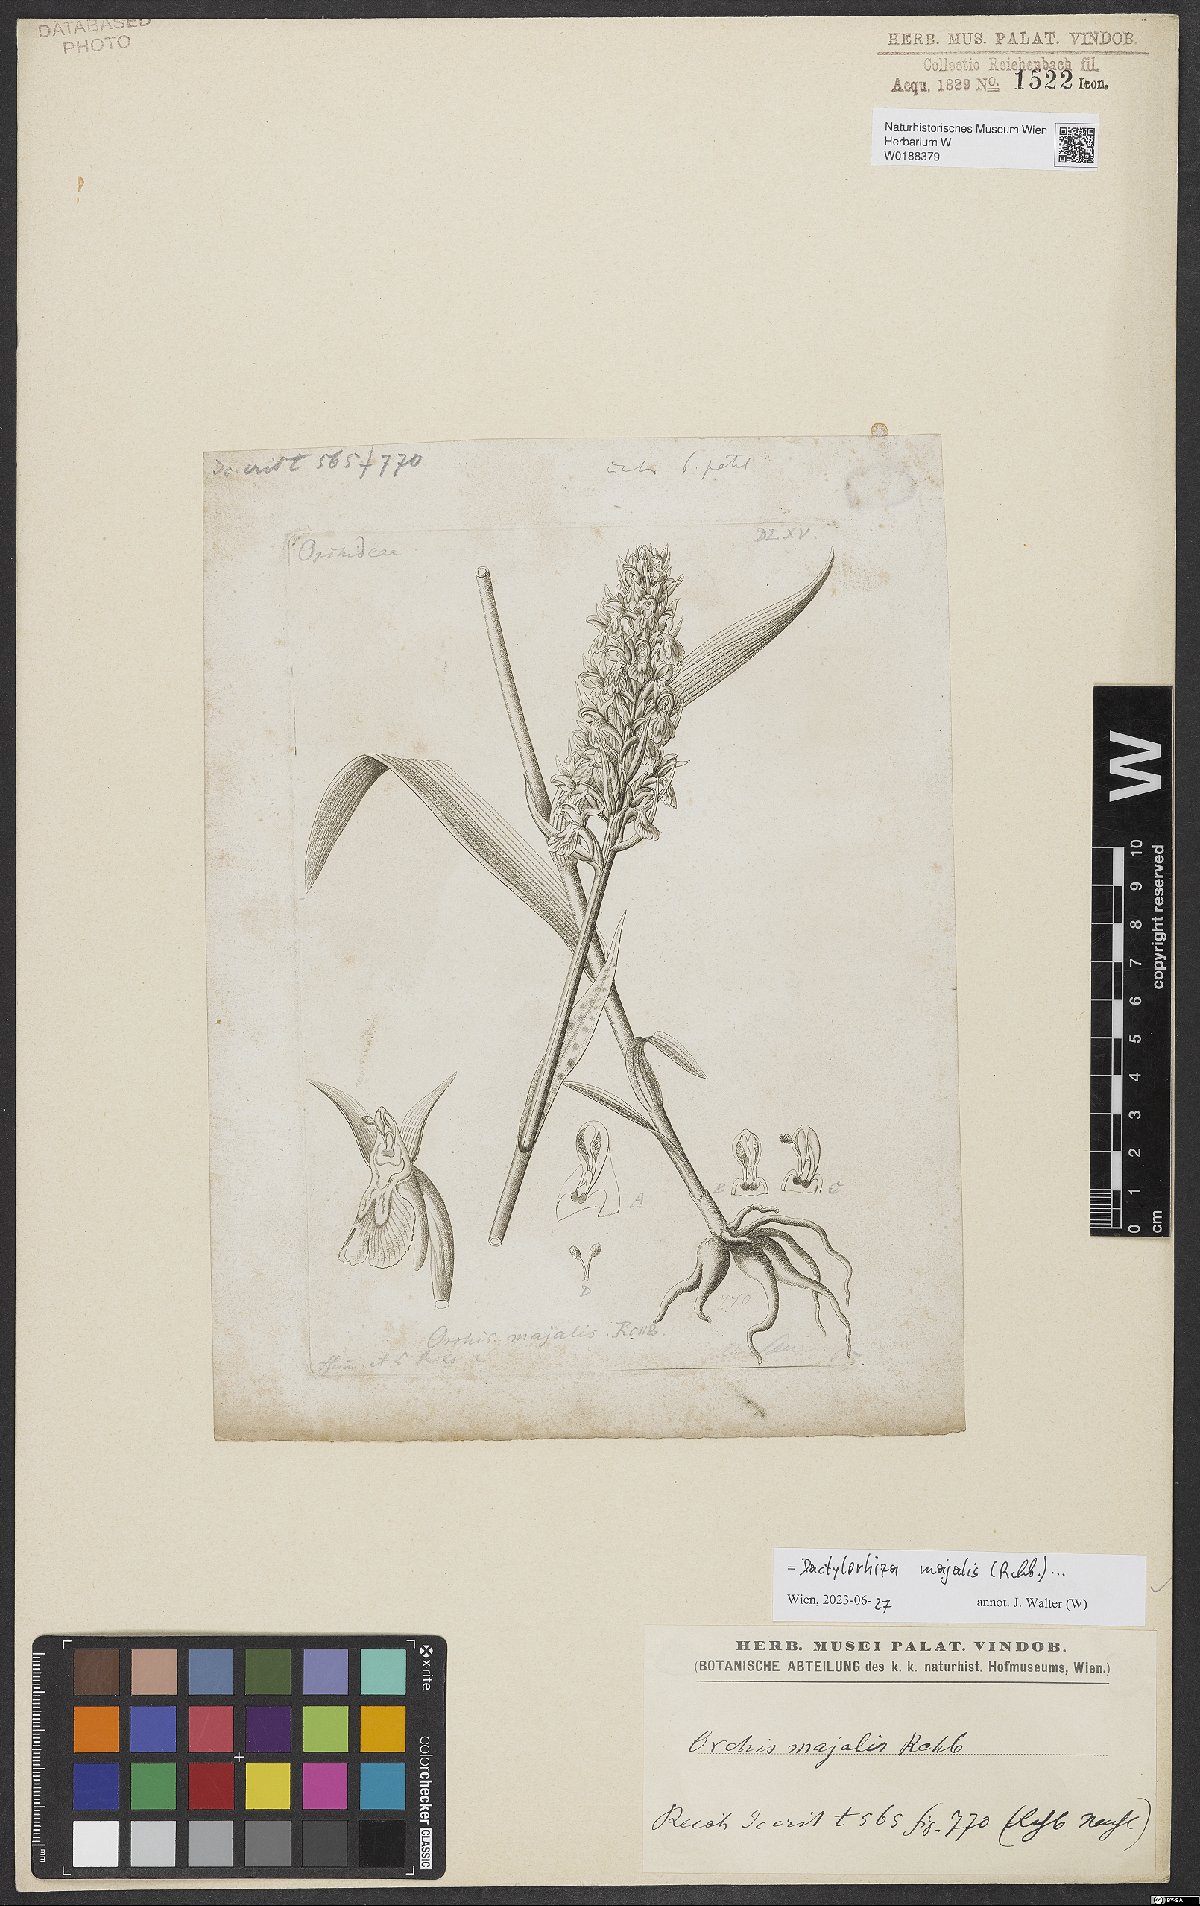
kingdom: Plantae
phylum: Tracheophyta
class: Liliopsida
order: Asparagales
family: Orchidaceae
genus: Dactylorhiza
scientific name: Dactylorhiza majalis
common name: Marsh orchid
